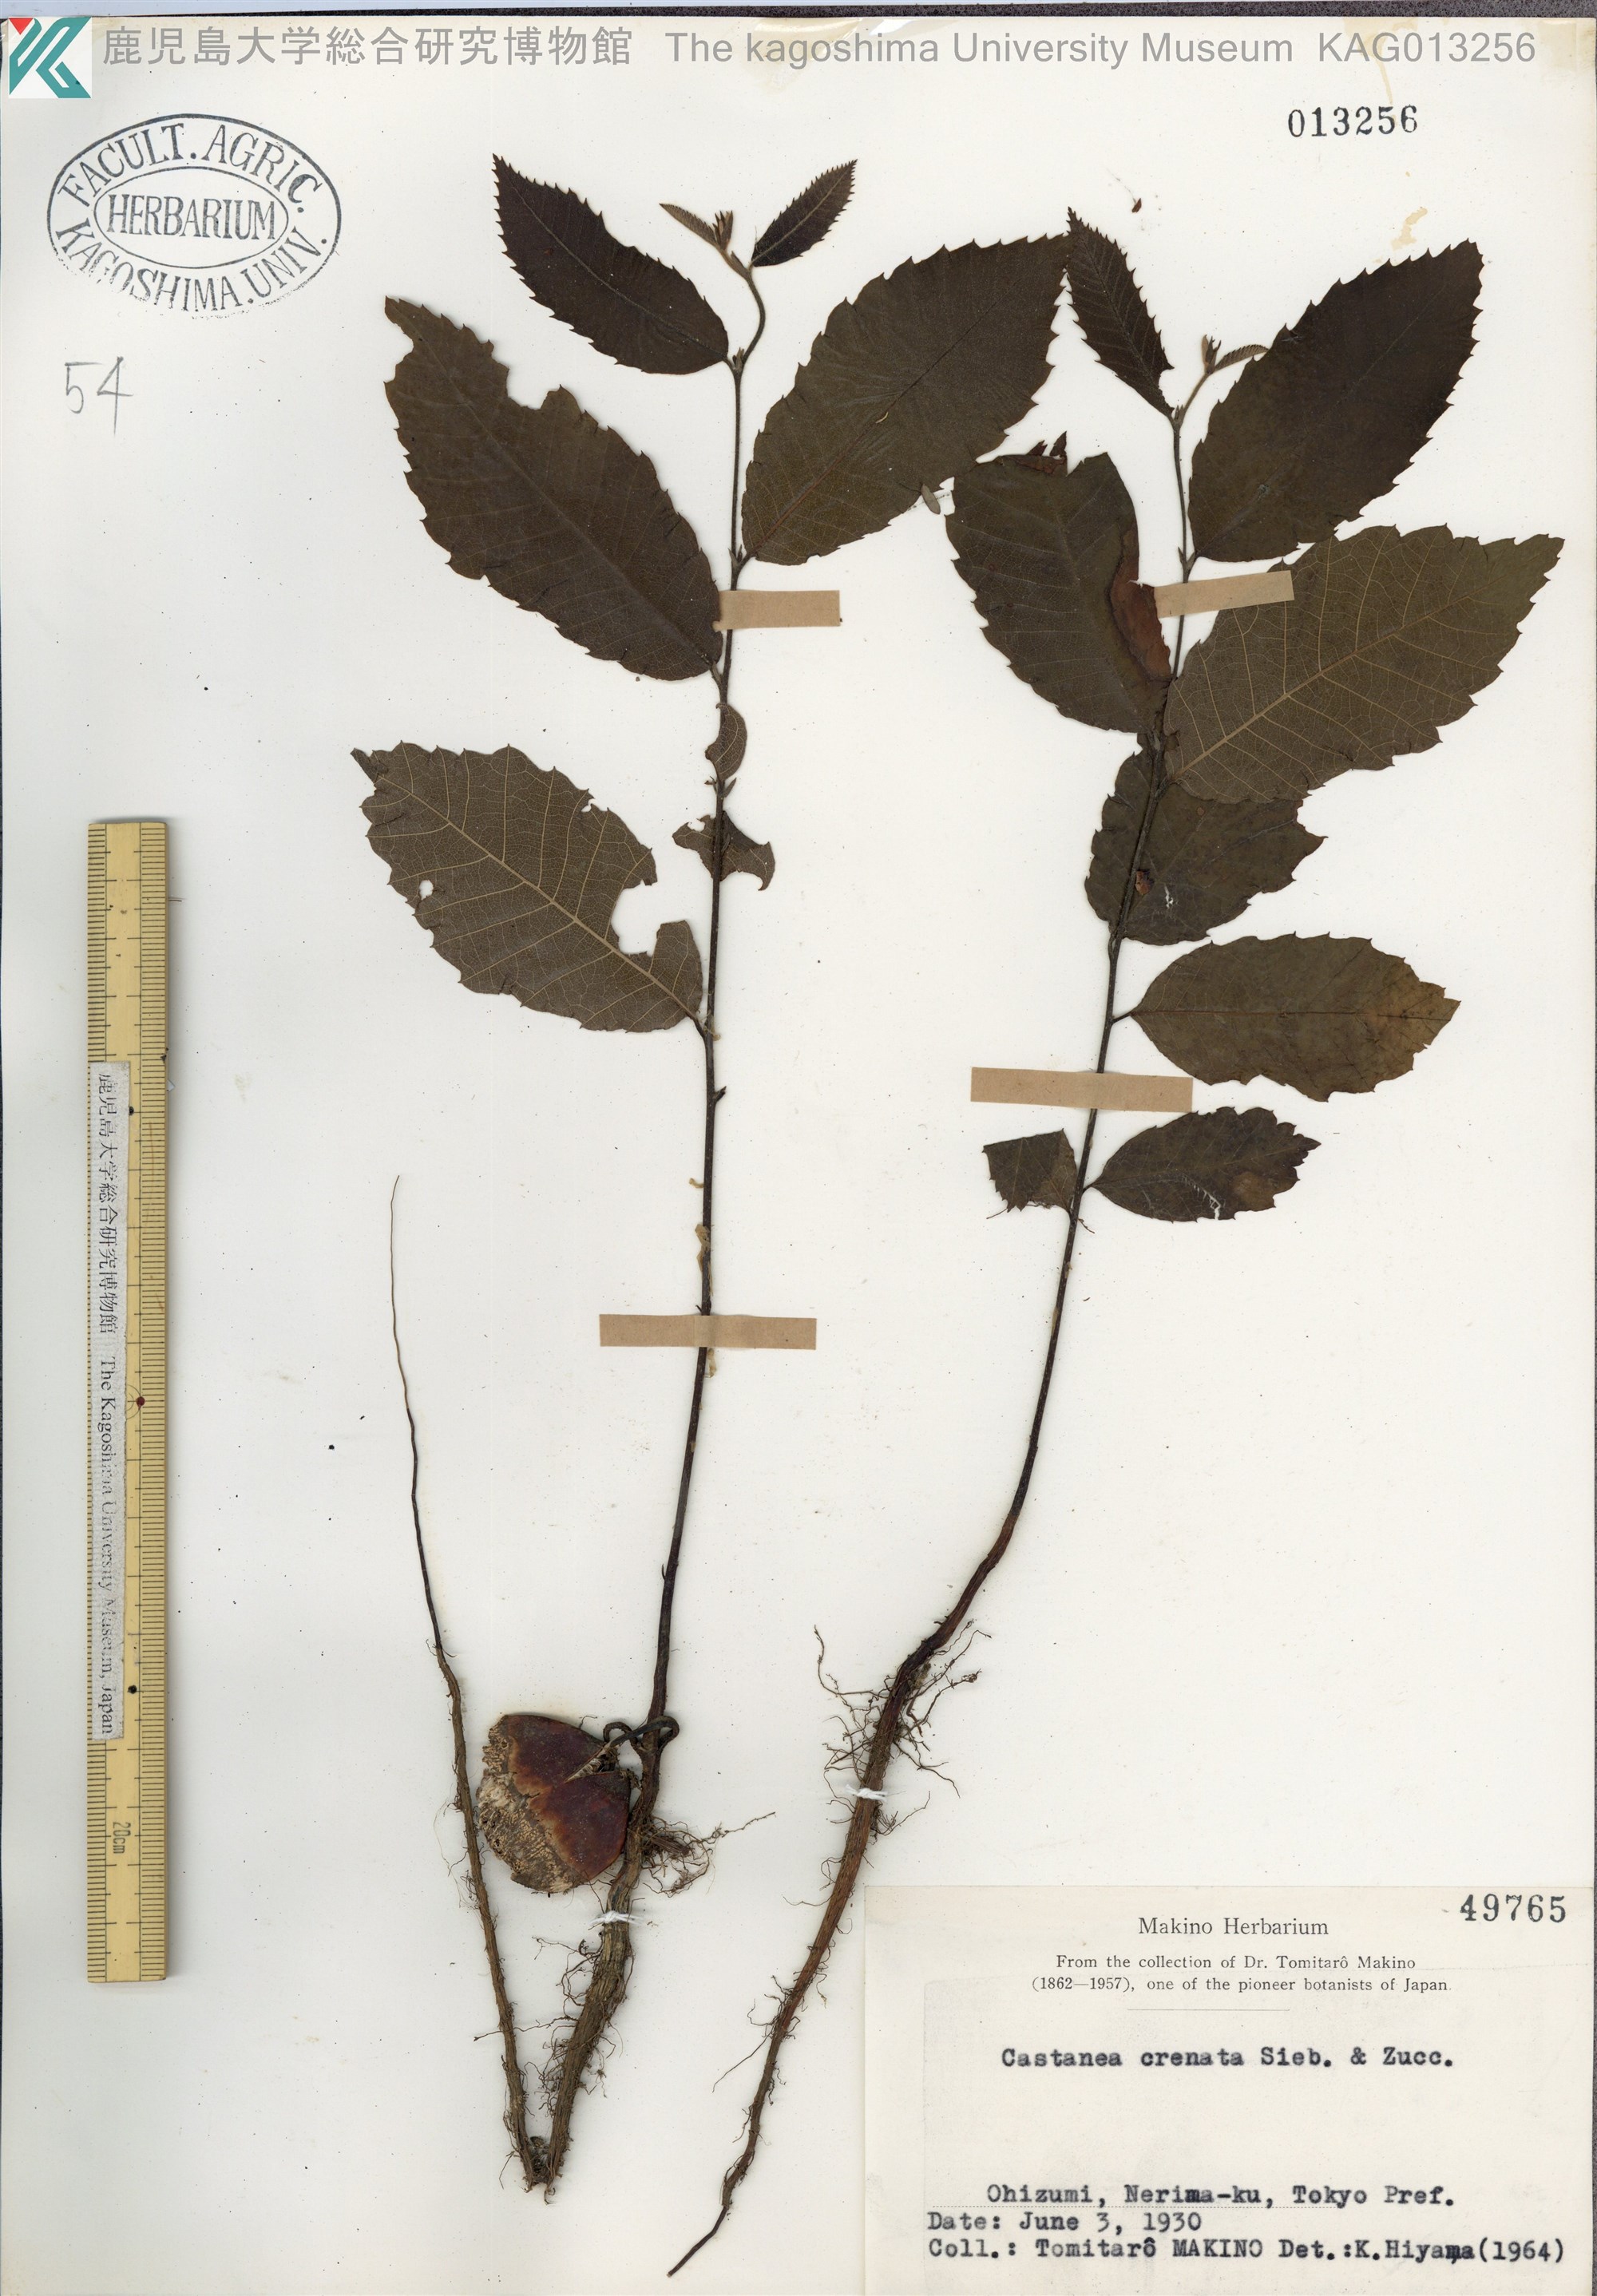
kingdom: Plantae
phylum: Tracheophyta
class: Magnoliopsida
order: Fagales
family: Fagaceae
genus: Castanea
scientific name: Castanea crenata
